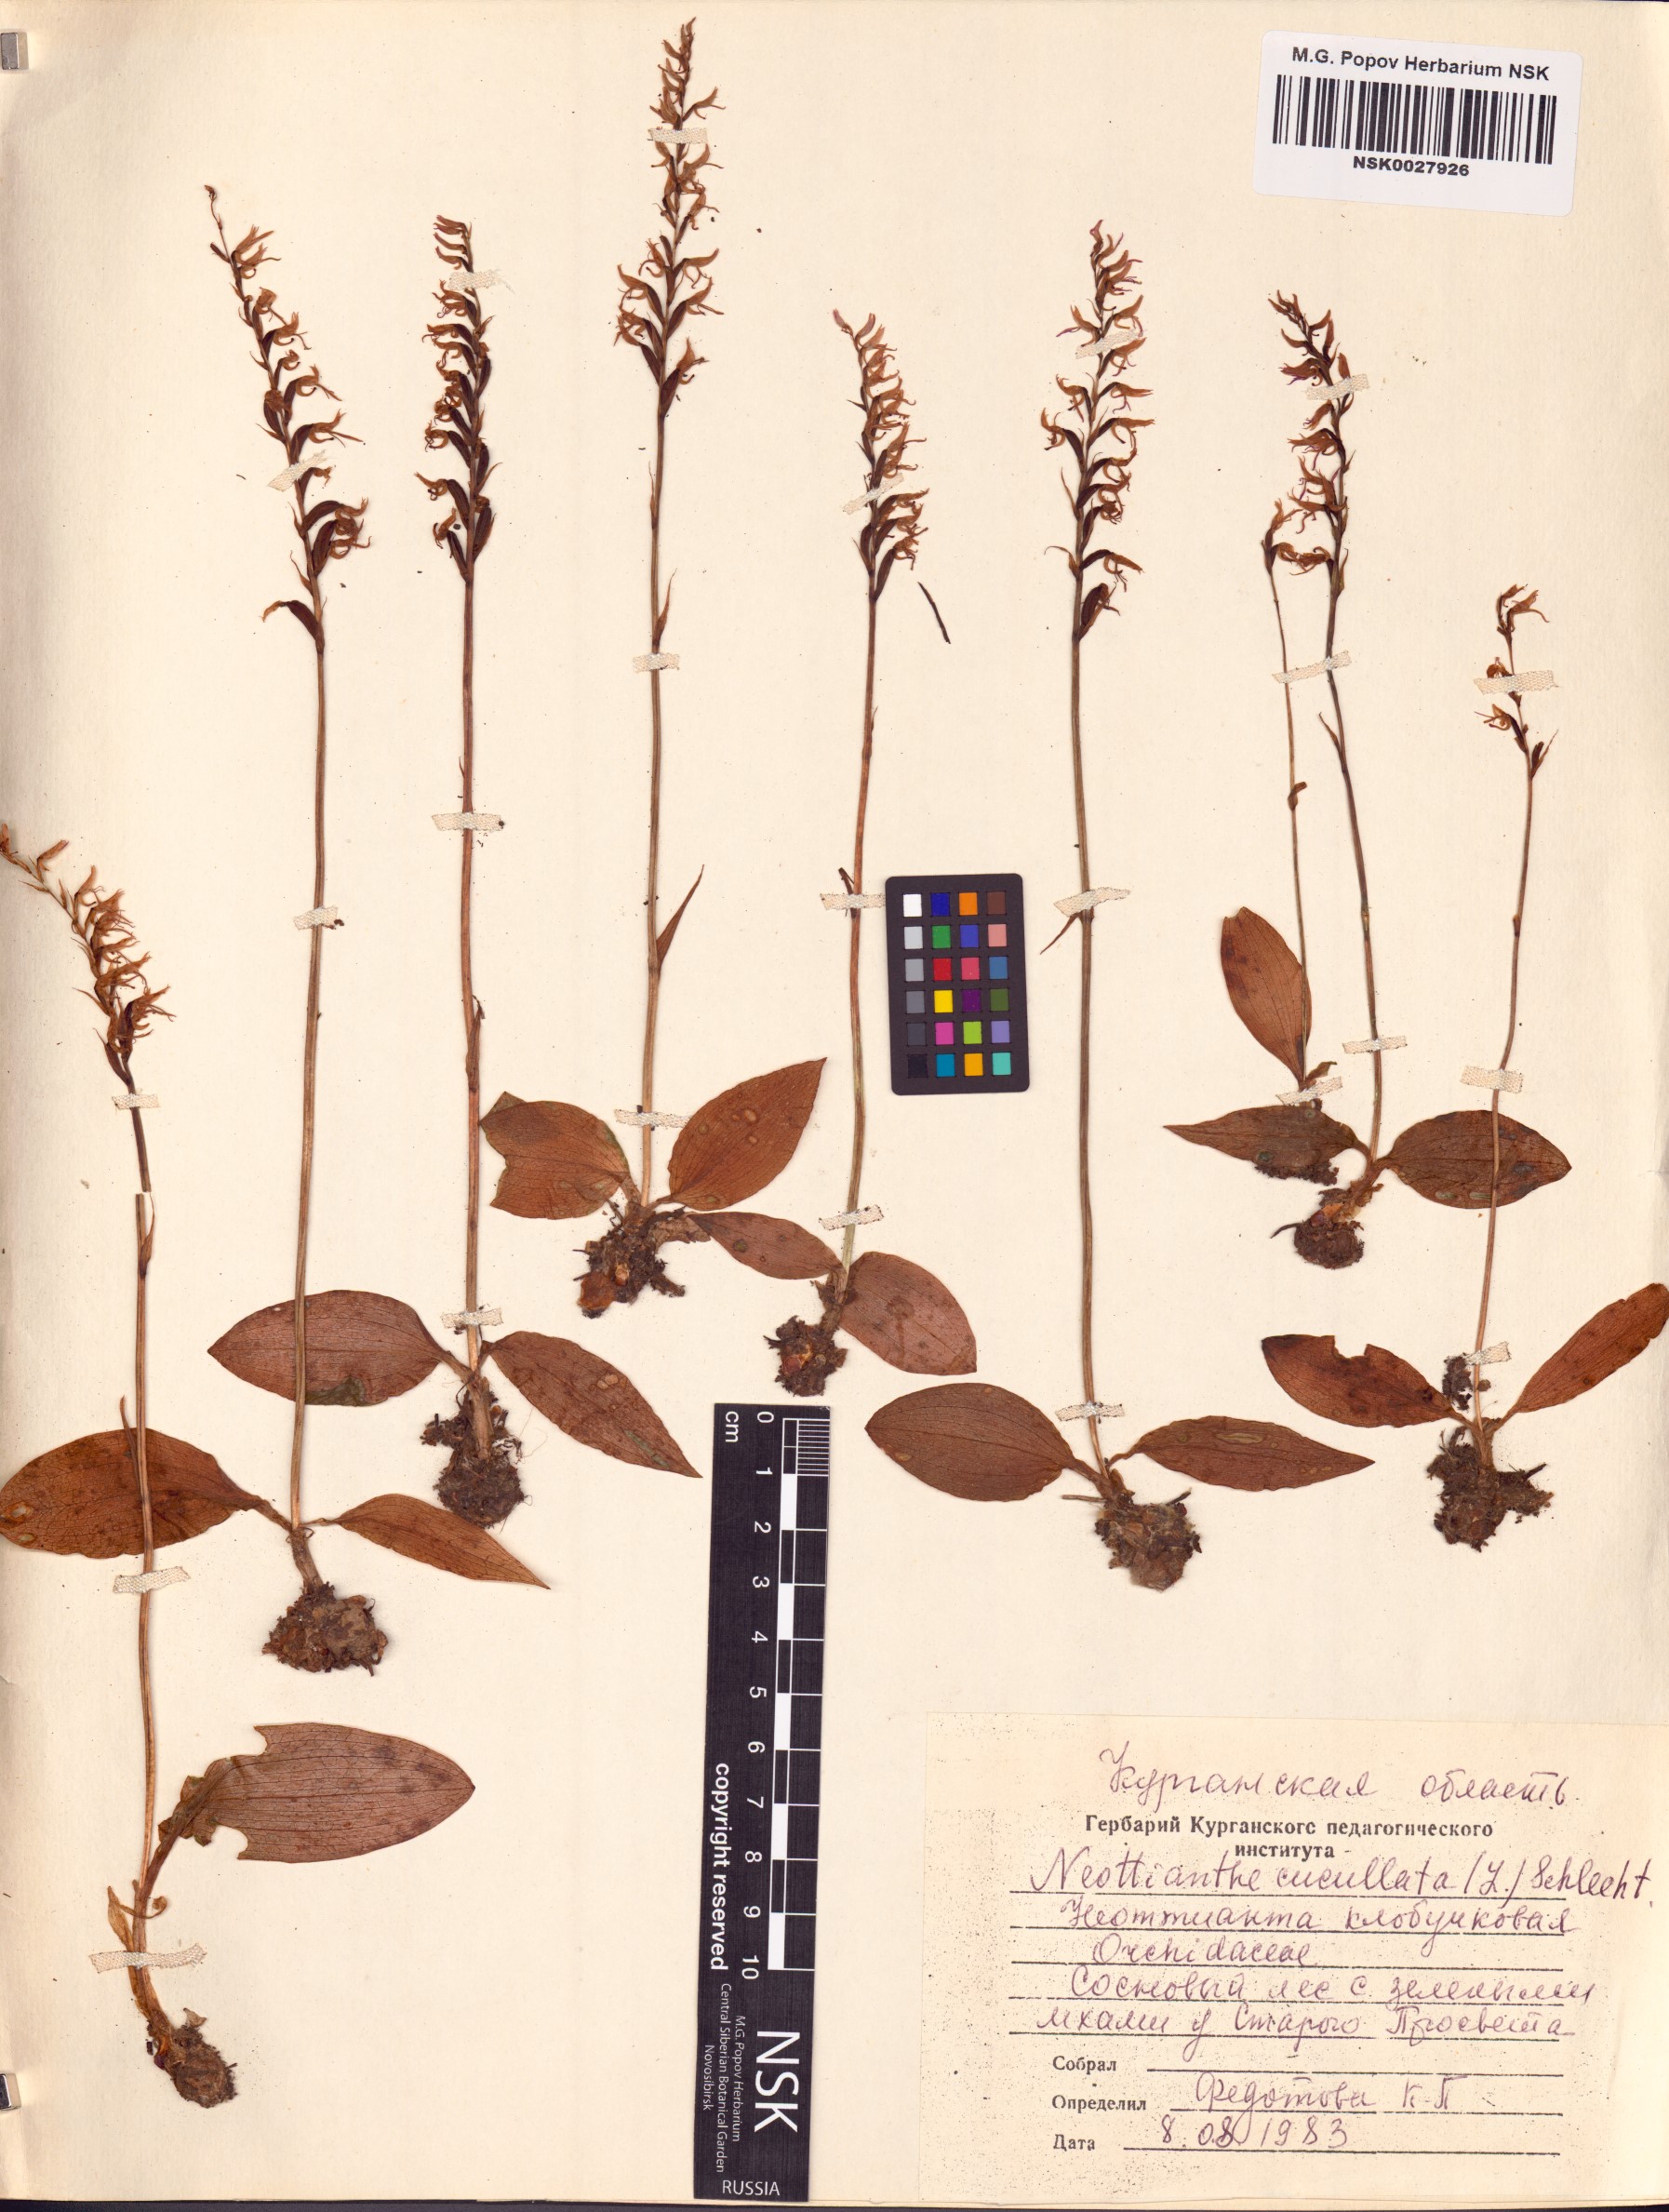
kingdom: Plantae
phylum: Tracheophyta
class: Liliopsida
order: Asparagales
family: Orchidaceae
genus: Hemipilia
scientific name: Hemipilia cucullata
